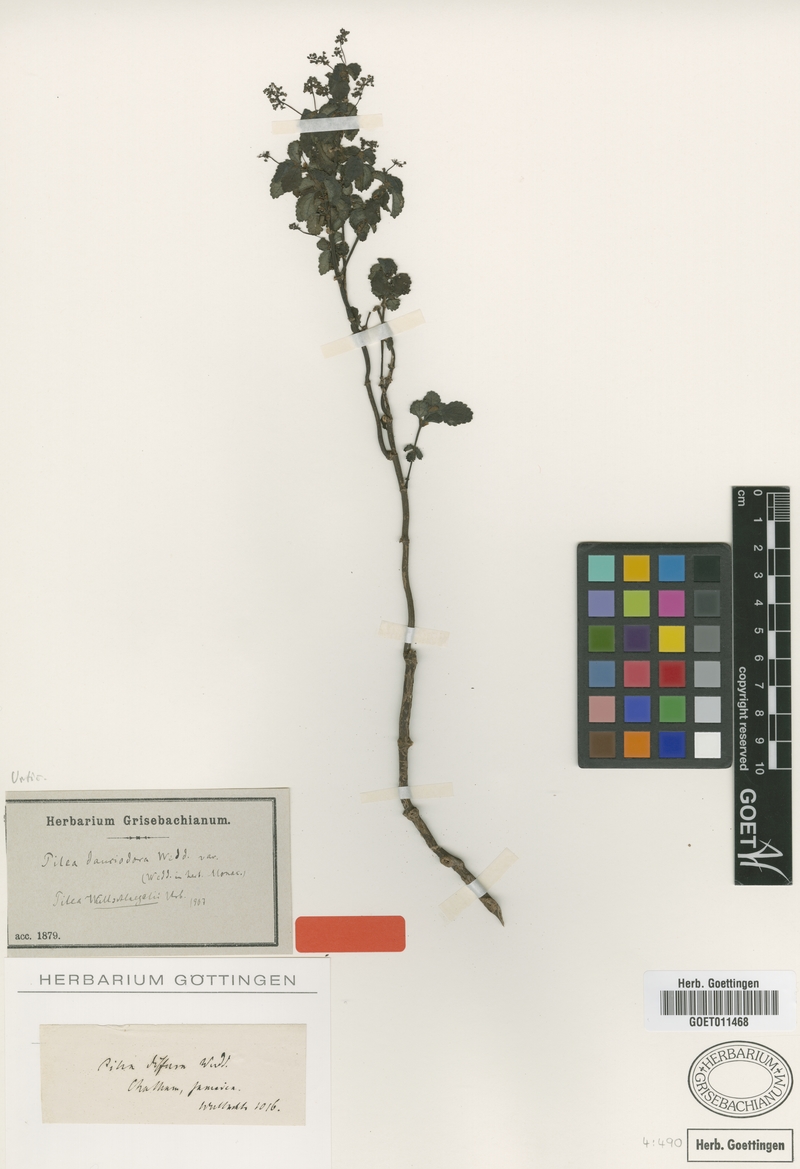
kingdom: Plantae
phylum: Tracheophyta
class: Magnoliopsida
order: Rosales
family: Urticaceae
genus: Pilea
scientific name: Pilea wullschlaegelii
